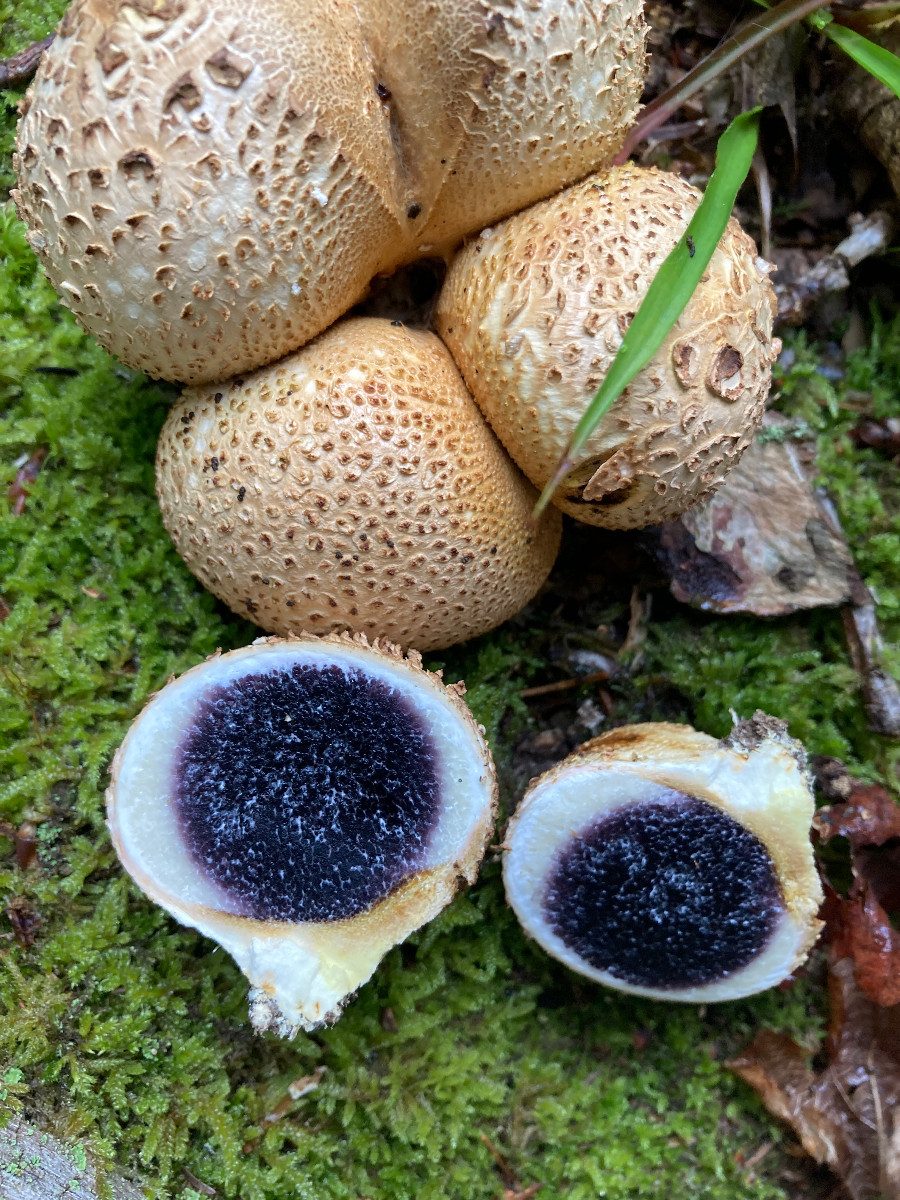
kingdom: Fungi
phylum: Basidiomycota
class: Agaricomycetes
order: Boletales
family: Sclerodermataceae
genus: Scleroderma
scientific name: Scleroderma citrinum
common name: almindelig bruskbold
